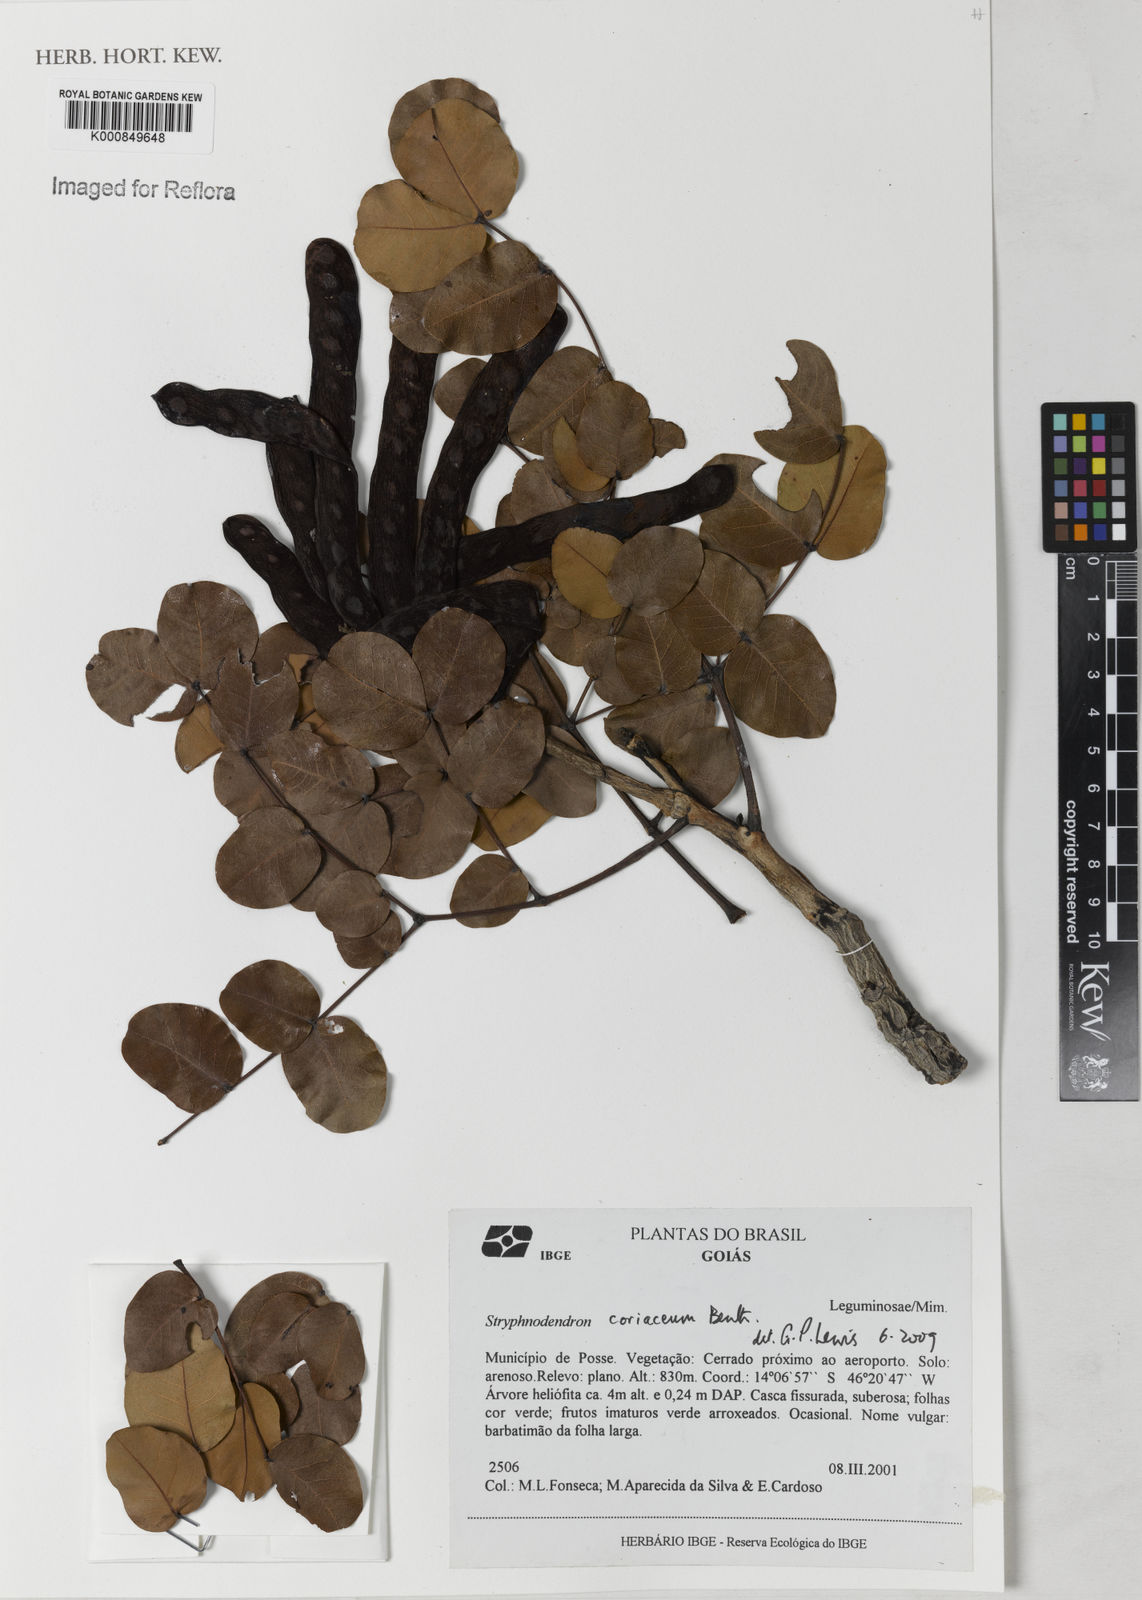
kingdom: Plantae
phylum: Tracheophyta
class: Magnoliopsida
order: Fabales
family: Fabaceae
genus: Stryphnodendron
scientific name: Stryphnodendron coriaceum
